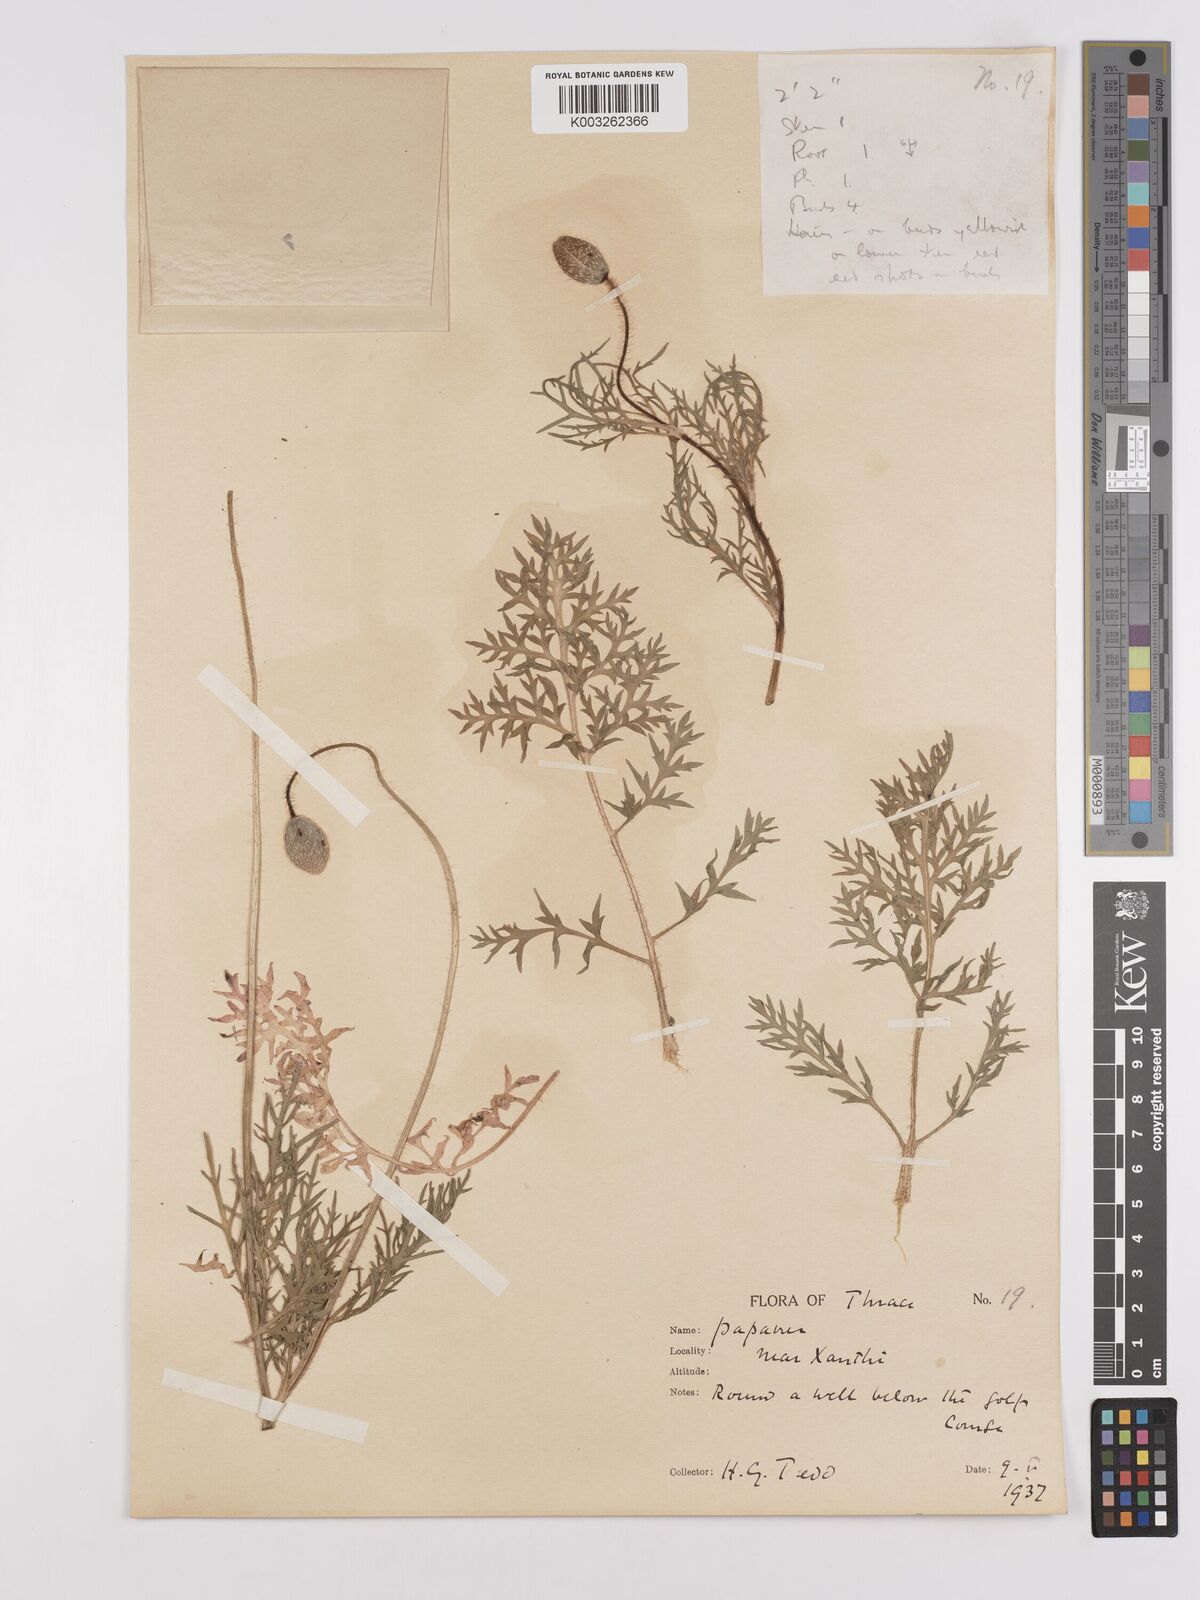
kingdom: Plantae
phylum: Tracheophyta
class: Magnoliopsida
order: Ranunculales
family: Papaveraceae
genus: Papaver
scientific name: Papaver rhoeas
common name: Corn poppy
